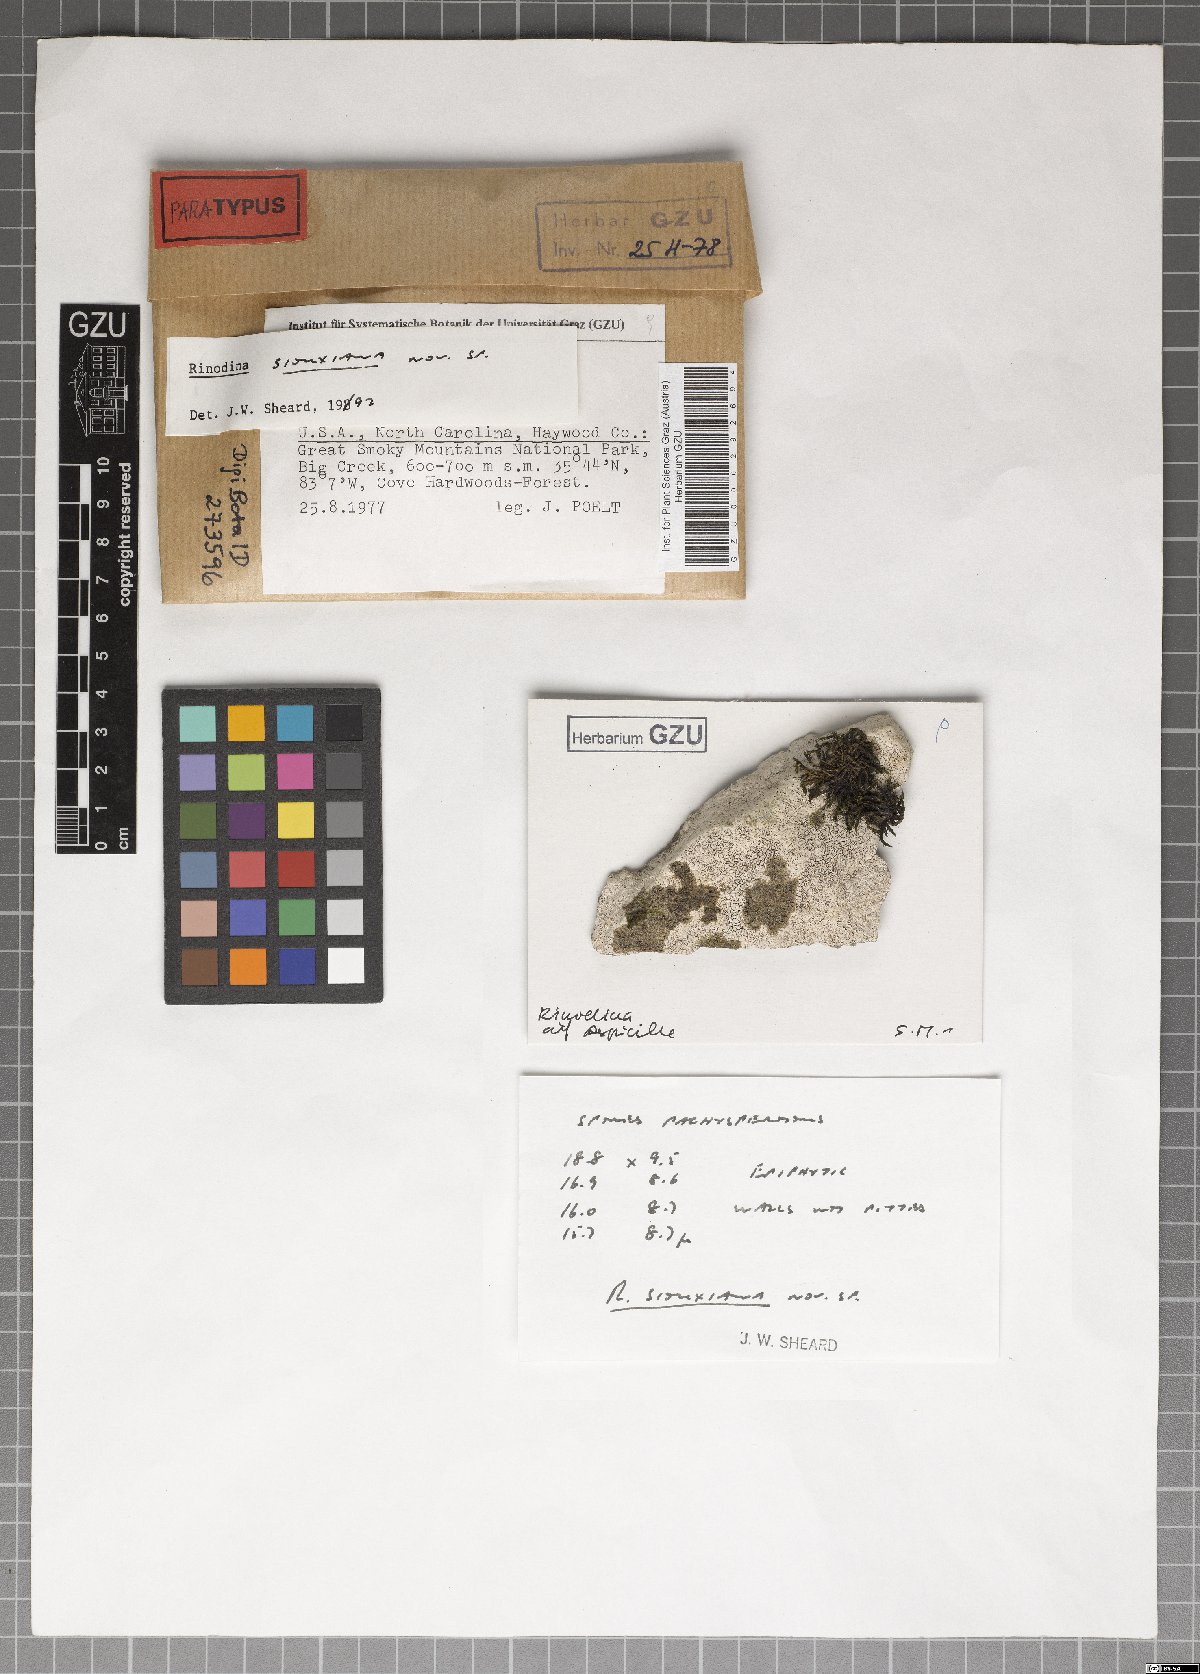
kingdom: Fungi
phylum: Ascomycota
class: Lecanoromycetes
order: Caliciales
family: Physciaceae
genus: Rinodina
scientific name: Rinodina siouxiana
